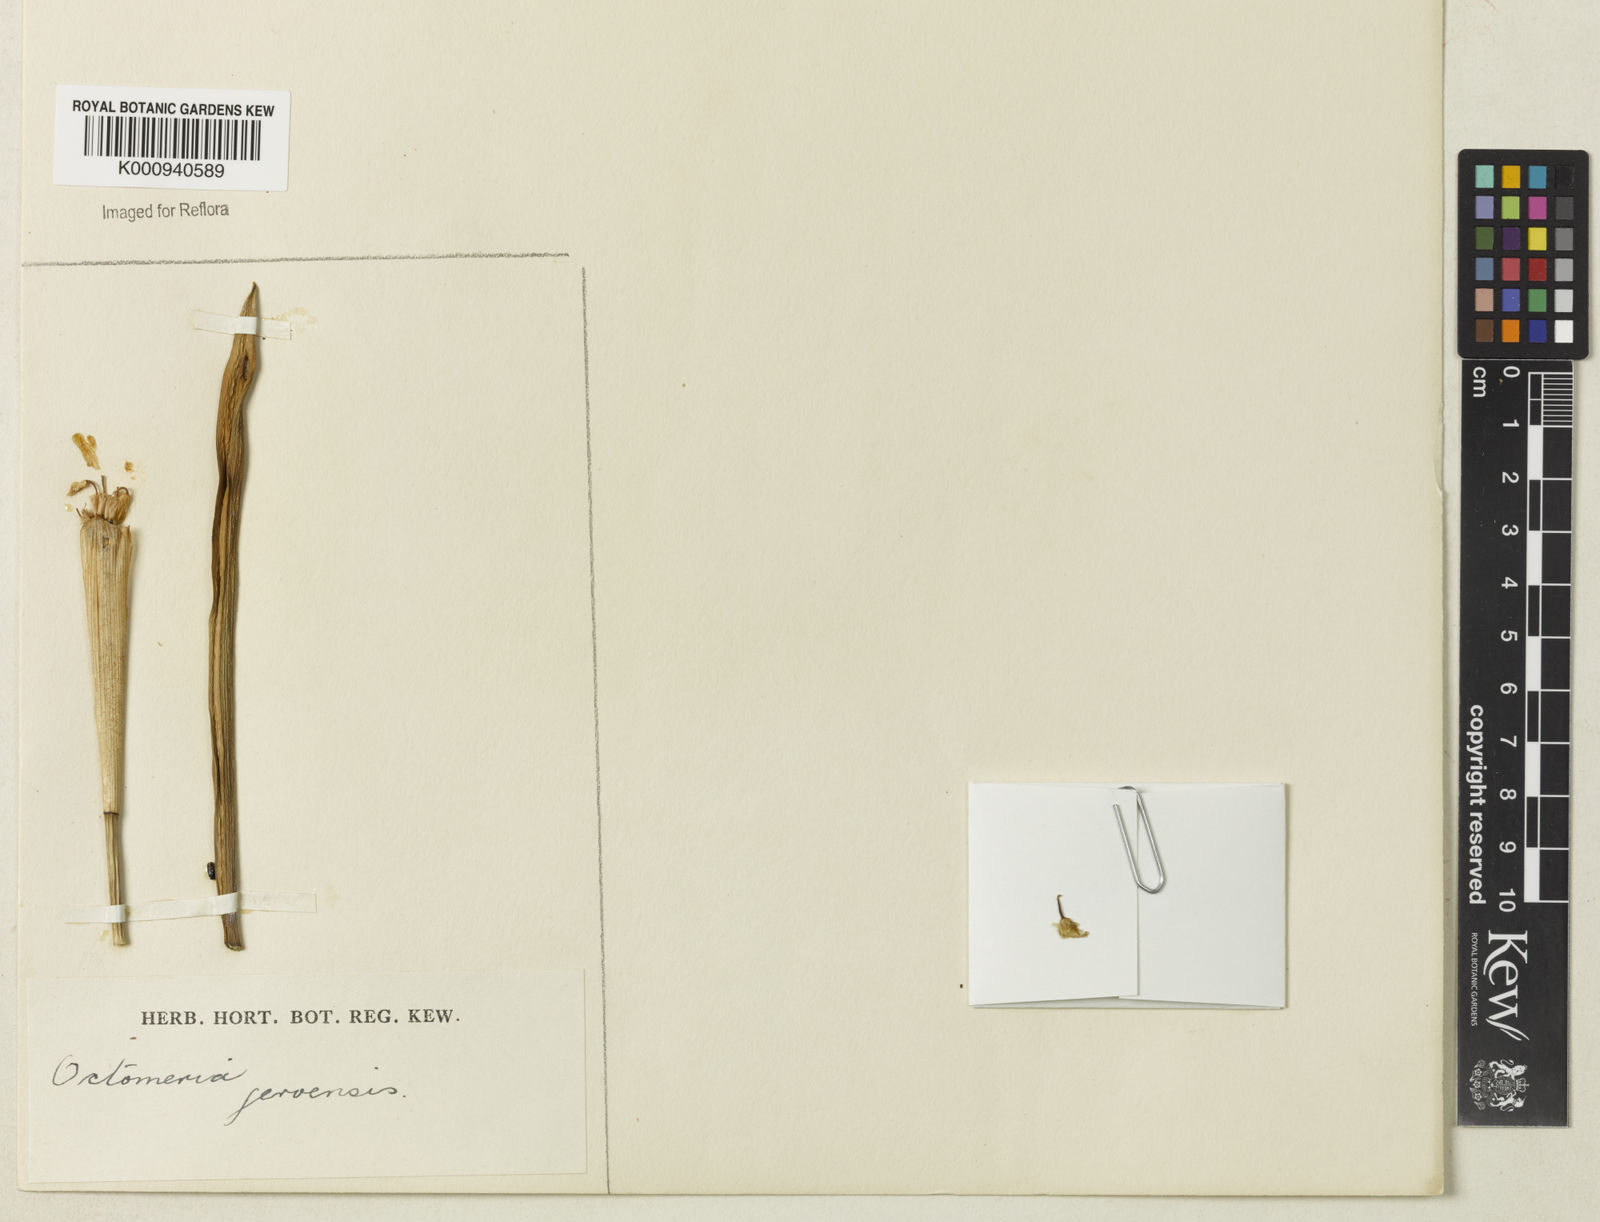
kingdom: Plantae
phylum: Tracheophyta
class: Liliopsida
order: Asparagales
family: Orchidaceae
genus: Octomeria
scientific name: Octomeria geraensis
